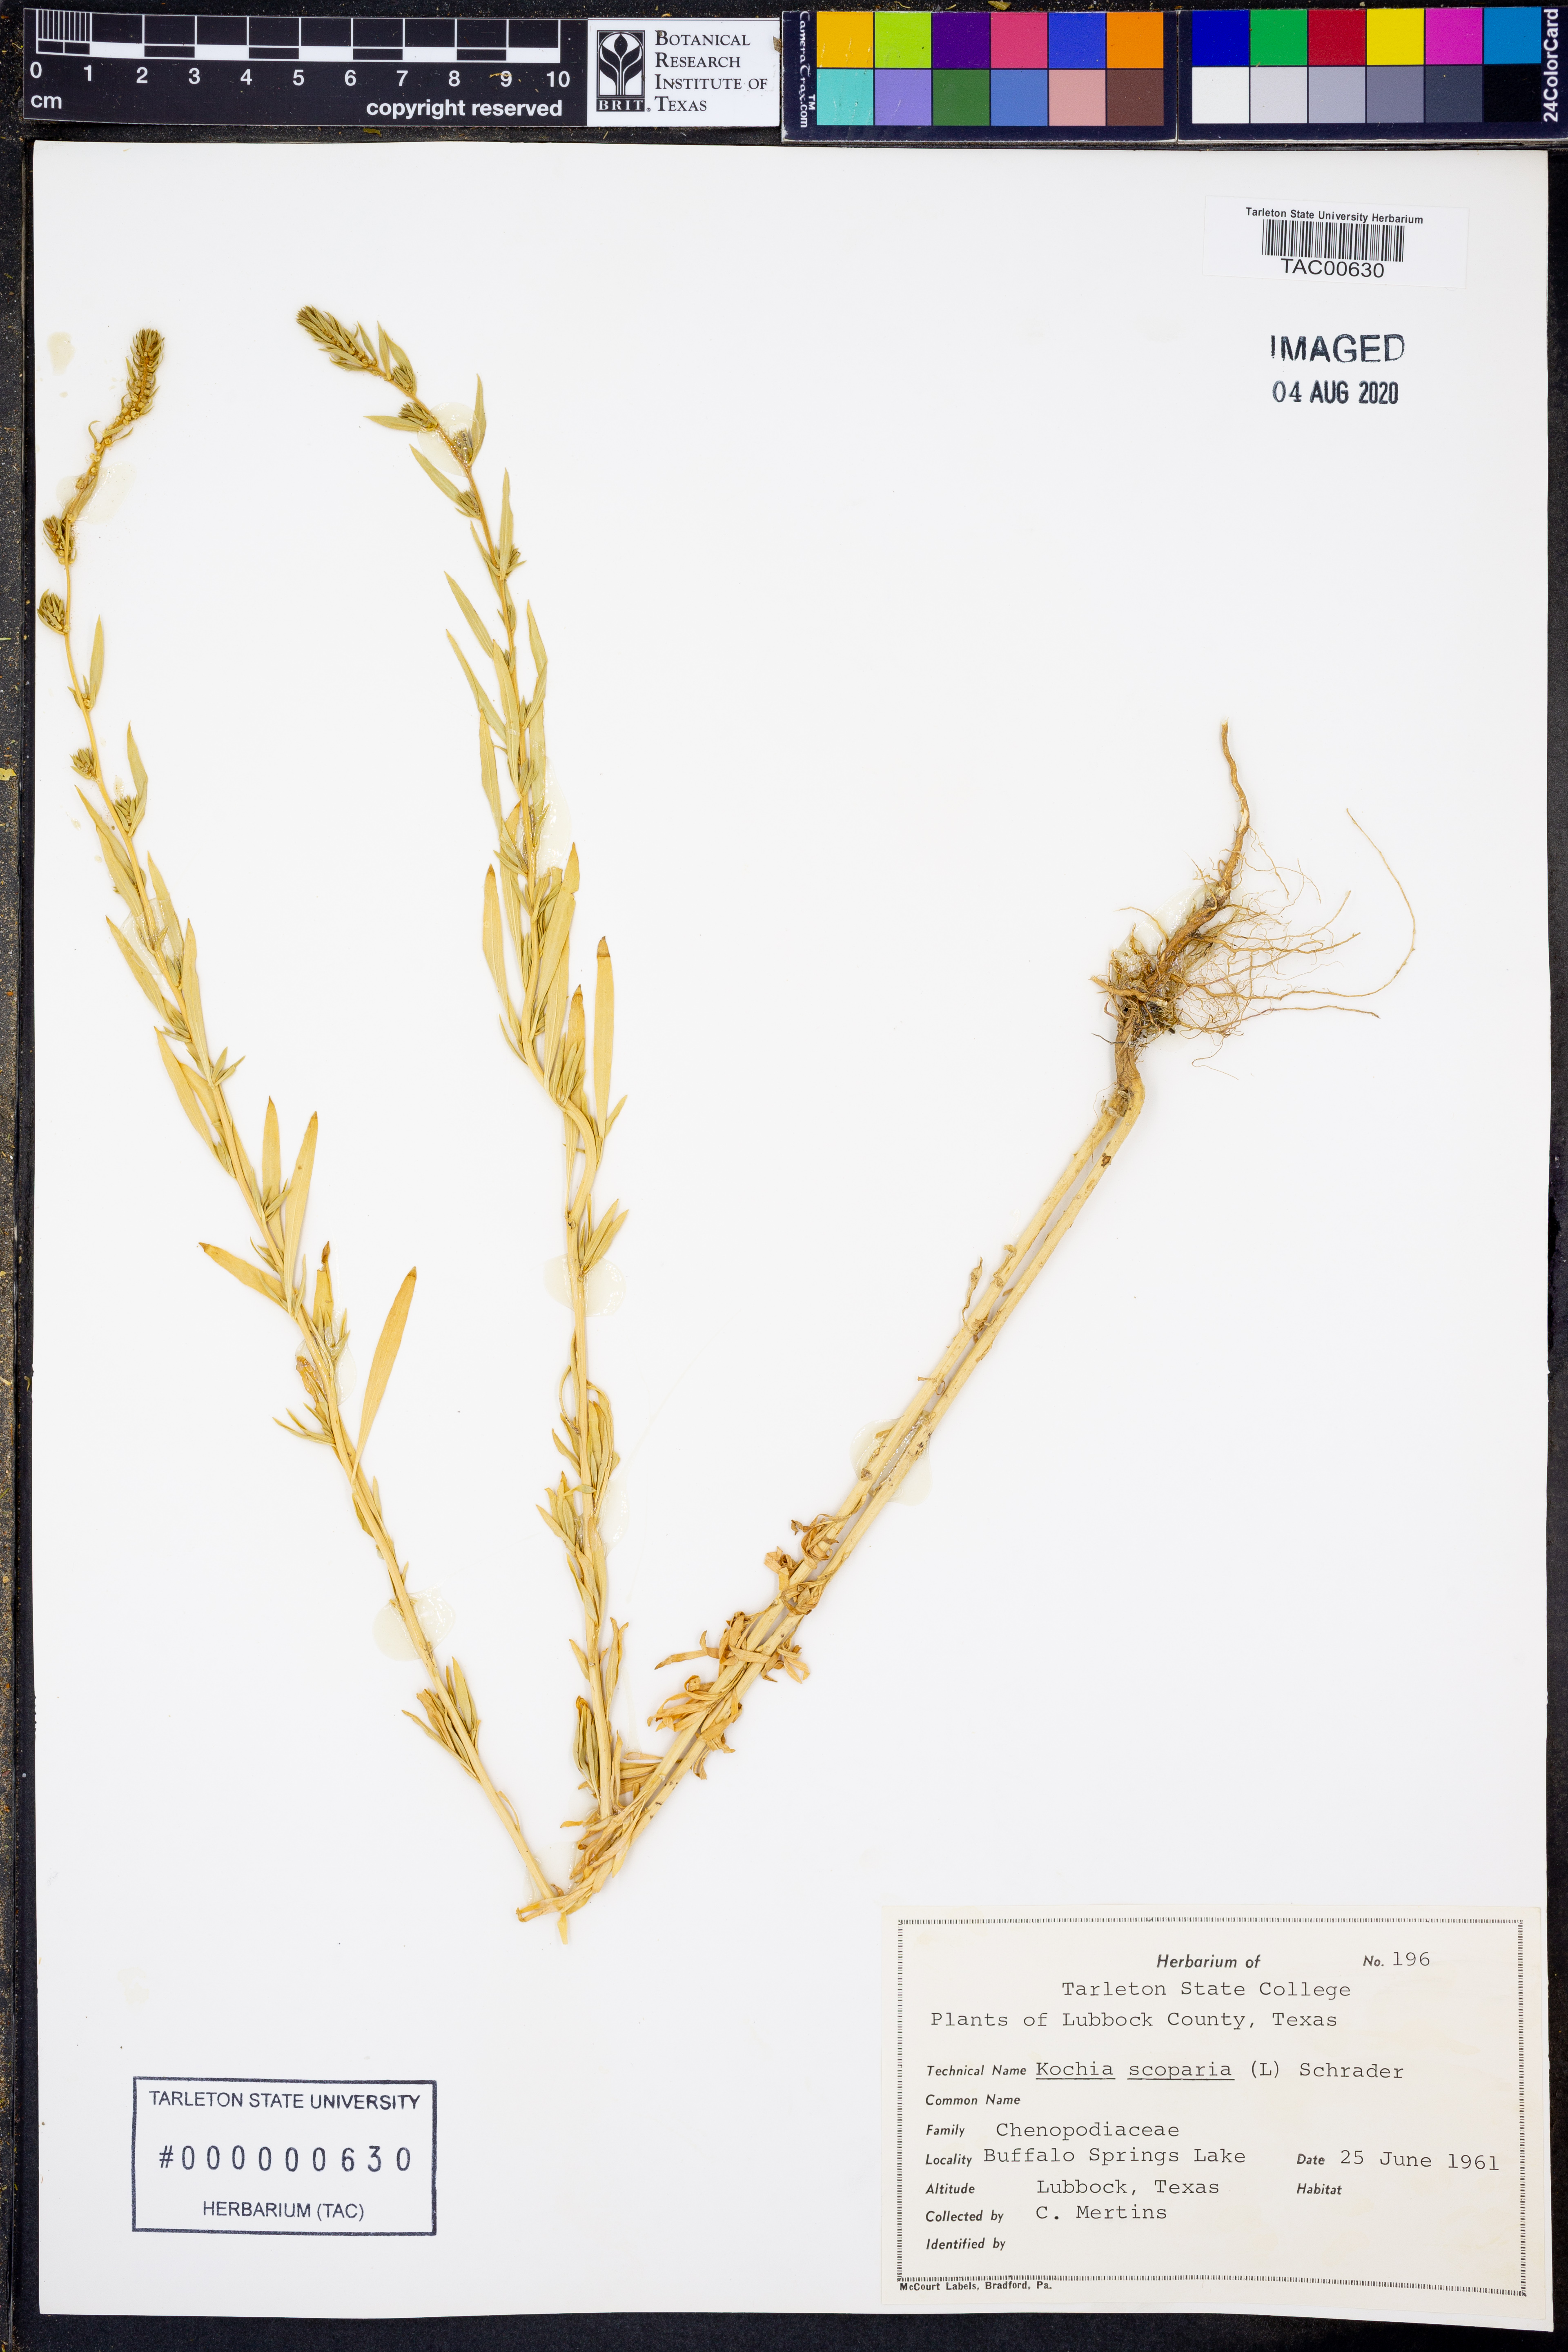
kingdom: Plantae
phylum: Tracheophyta
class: Magnoliopsida
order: Caryophyllales
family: Amaranthaceae
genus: Bassia
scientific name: Bassia scoparia
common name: Belvedere
